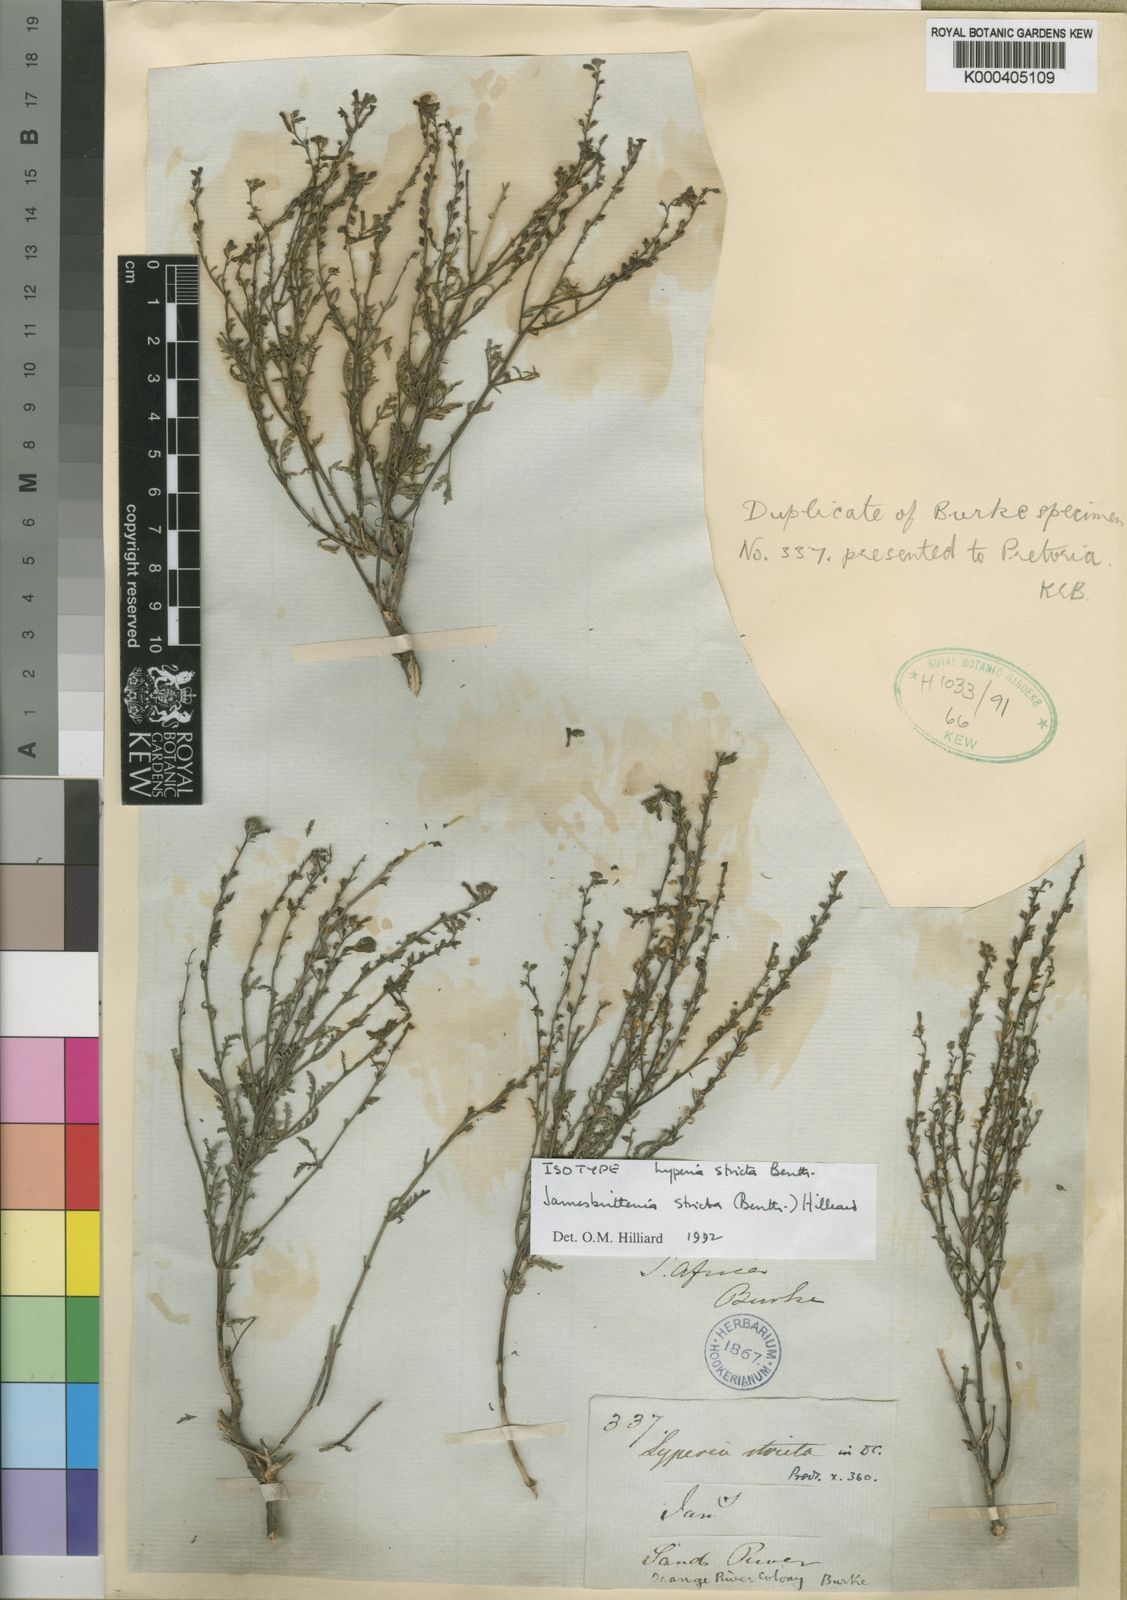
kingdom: Plantae
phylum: Tracheophyta
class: Magnoliopsida
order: Lamiales
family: Scrophulariaceae
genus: Jamesbrittenia
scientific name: Jamesbrittenia stricta
